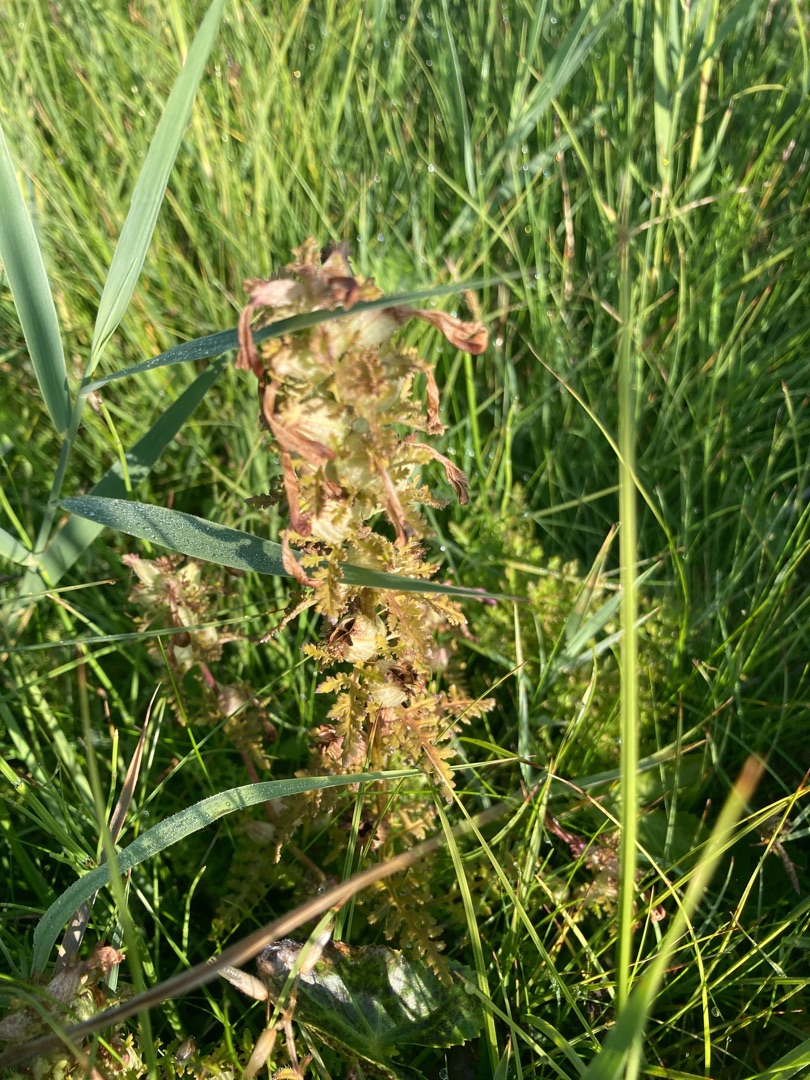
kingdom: Plantae
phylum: Tracheophyta
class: Magnoliopsida
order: Lamiales
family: Orobanchaceae
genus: Pedicularis
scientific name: Pedicularis palustris
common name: Eng-troldurt
